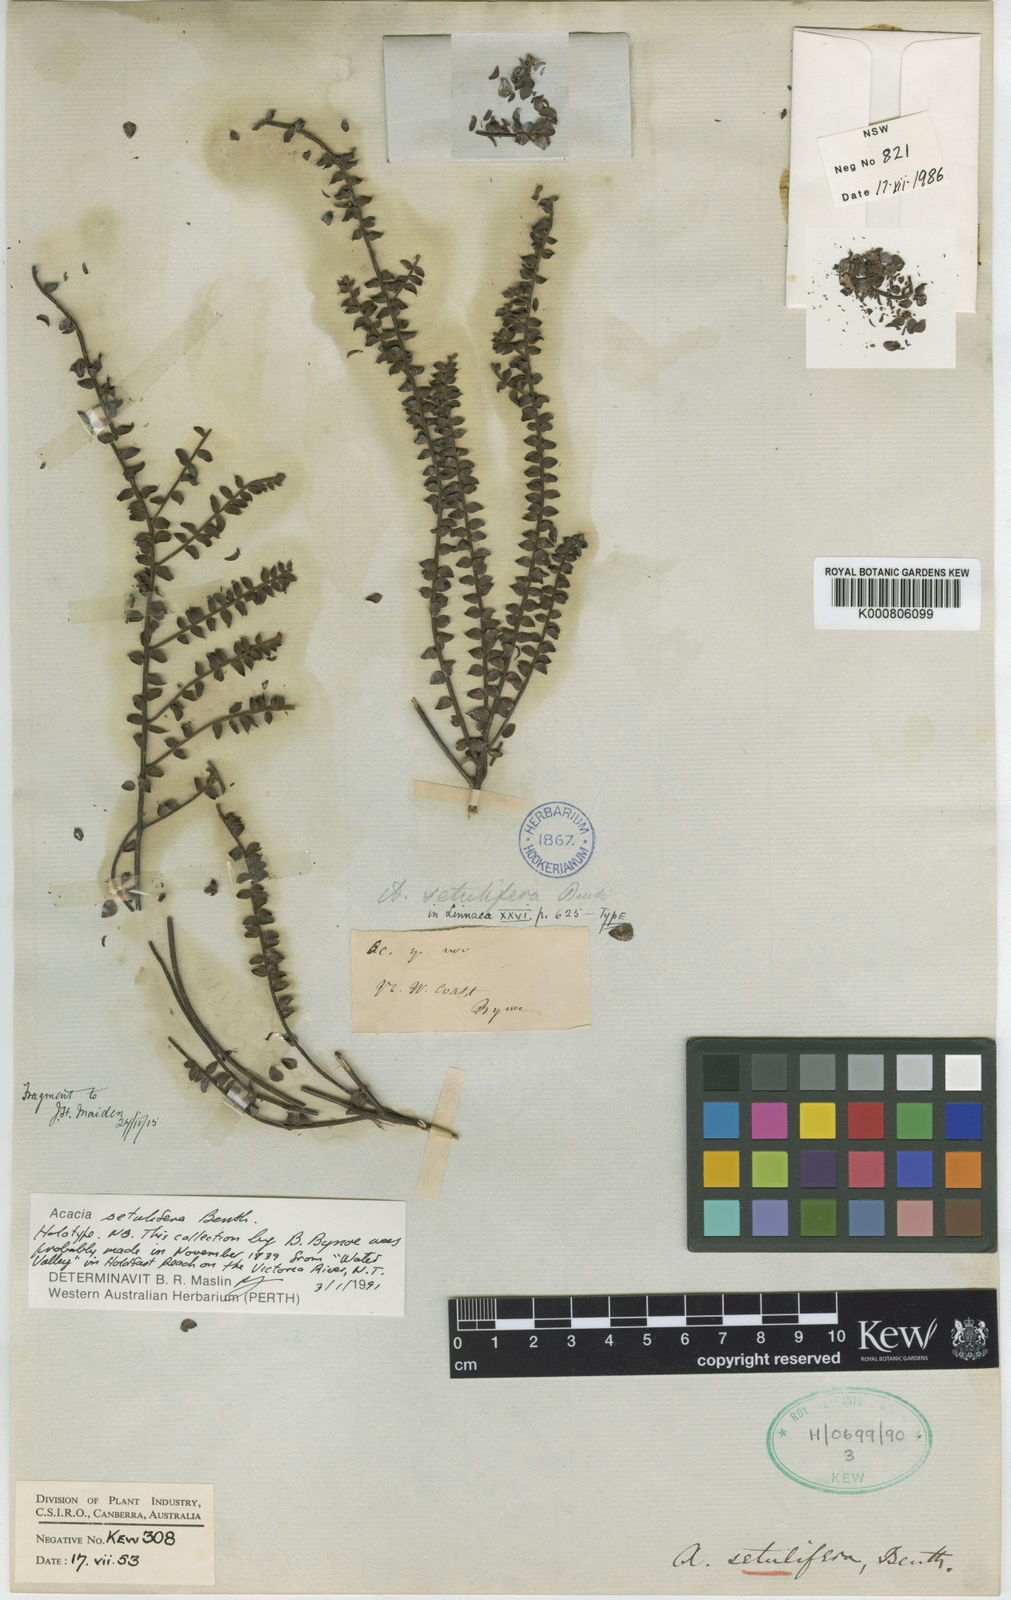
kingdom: Plantae
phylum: Tracheophyta
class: Magnoliopsida
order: Fabales
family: Fabaceae
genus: Acacia
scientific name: Acacia setulifera
